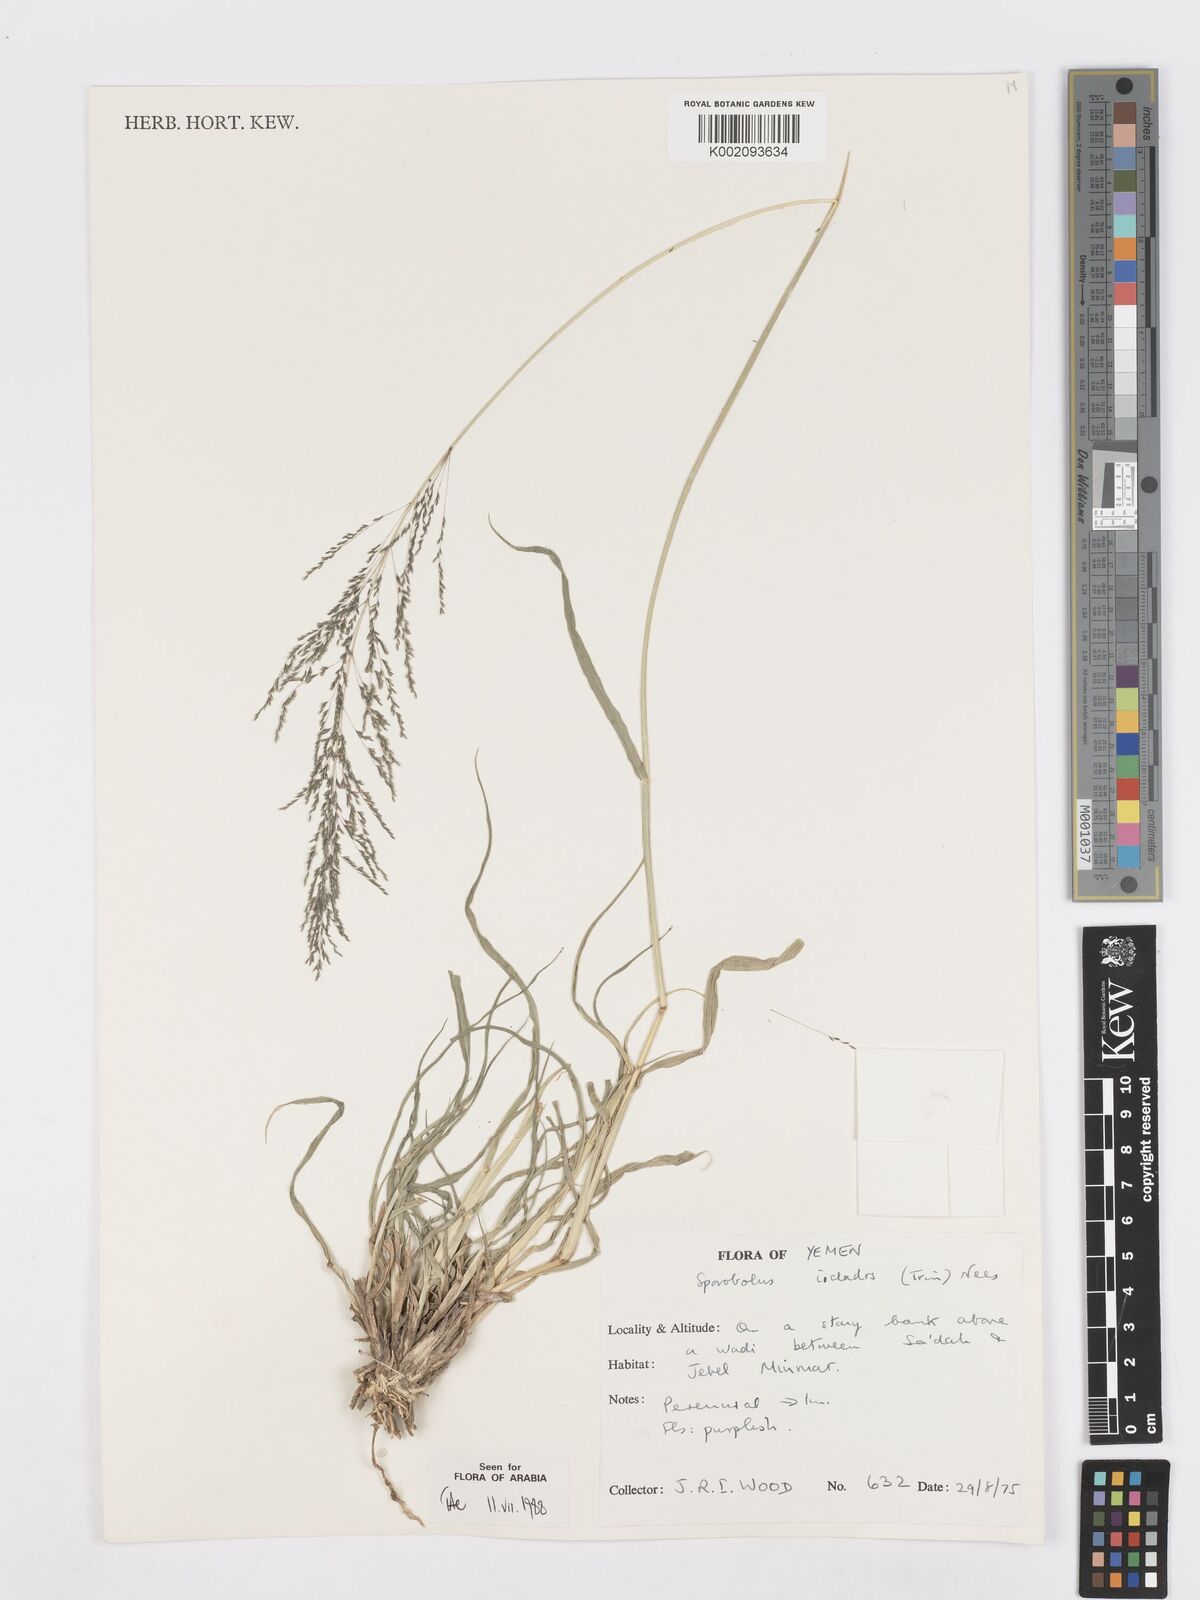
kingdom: Plantae
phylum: Tracheophyta
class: Liliopsida
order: Poales
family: Poaceae
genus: Sporobolus
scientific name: Sporobolus ioclados
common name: Pan dropseed
